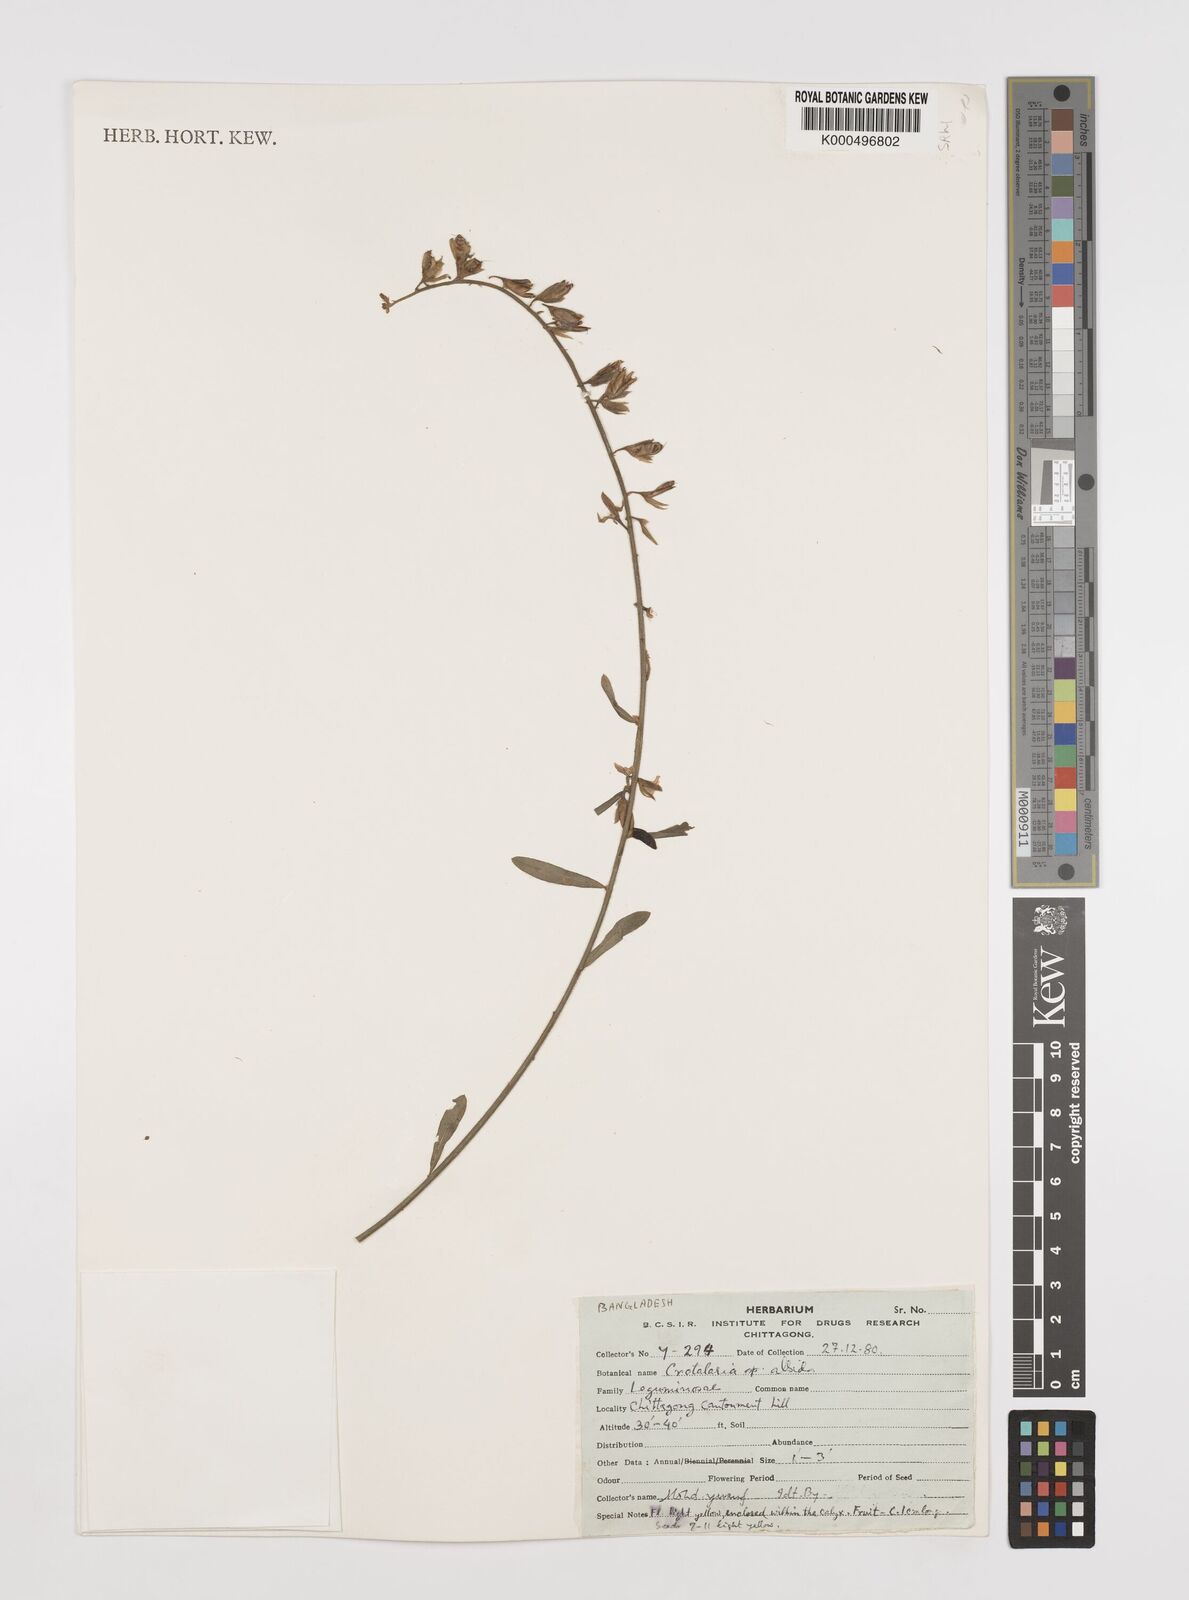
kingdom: Plantae
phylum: Tracheophyta
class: Magnoliopsida
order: Fabales
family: Fabaceae
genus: Crotalaria
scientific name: Crotalaria albida
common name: Taiwan crotalaria
